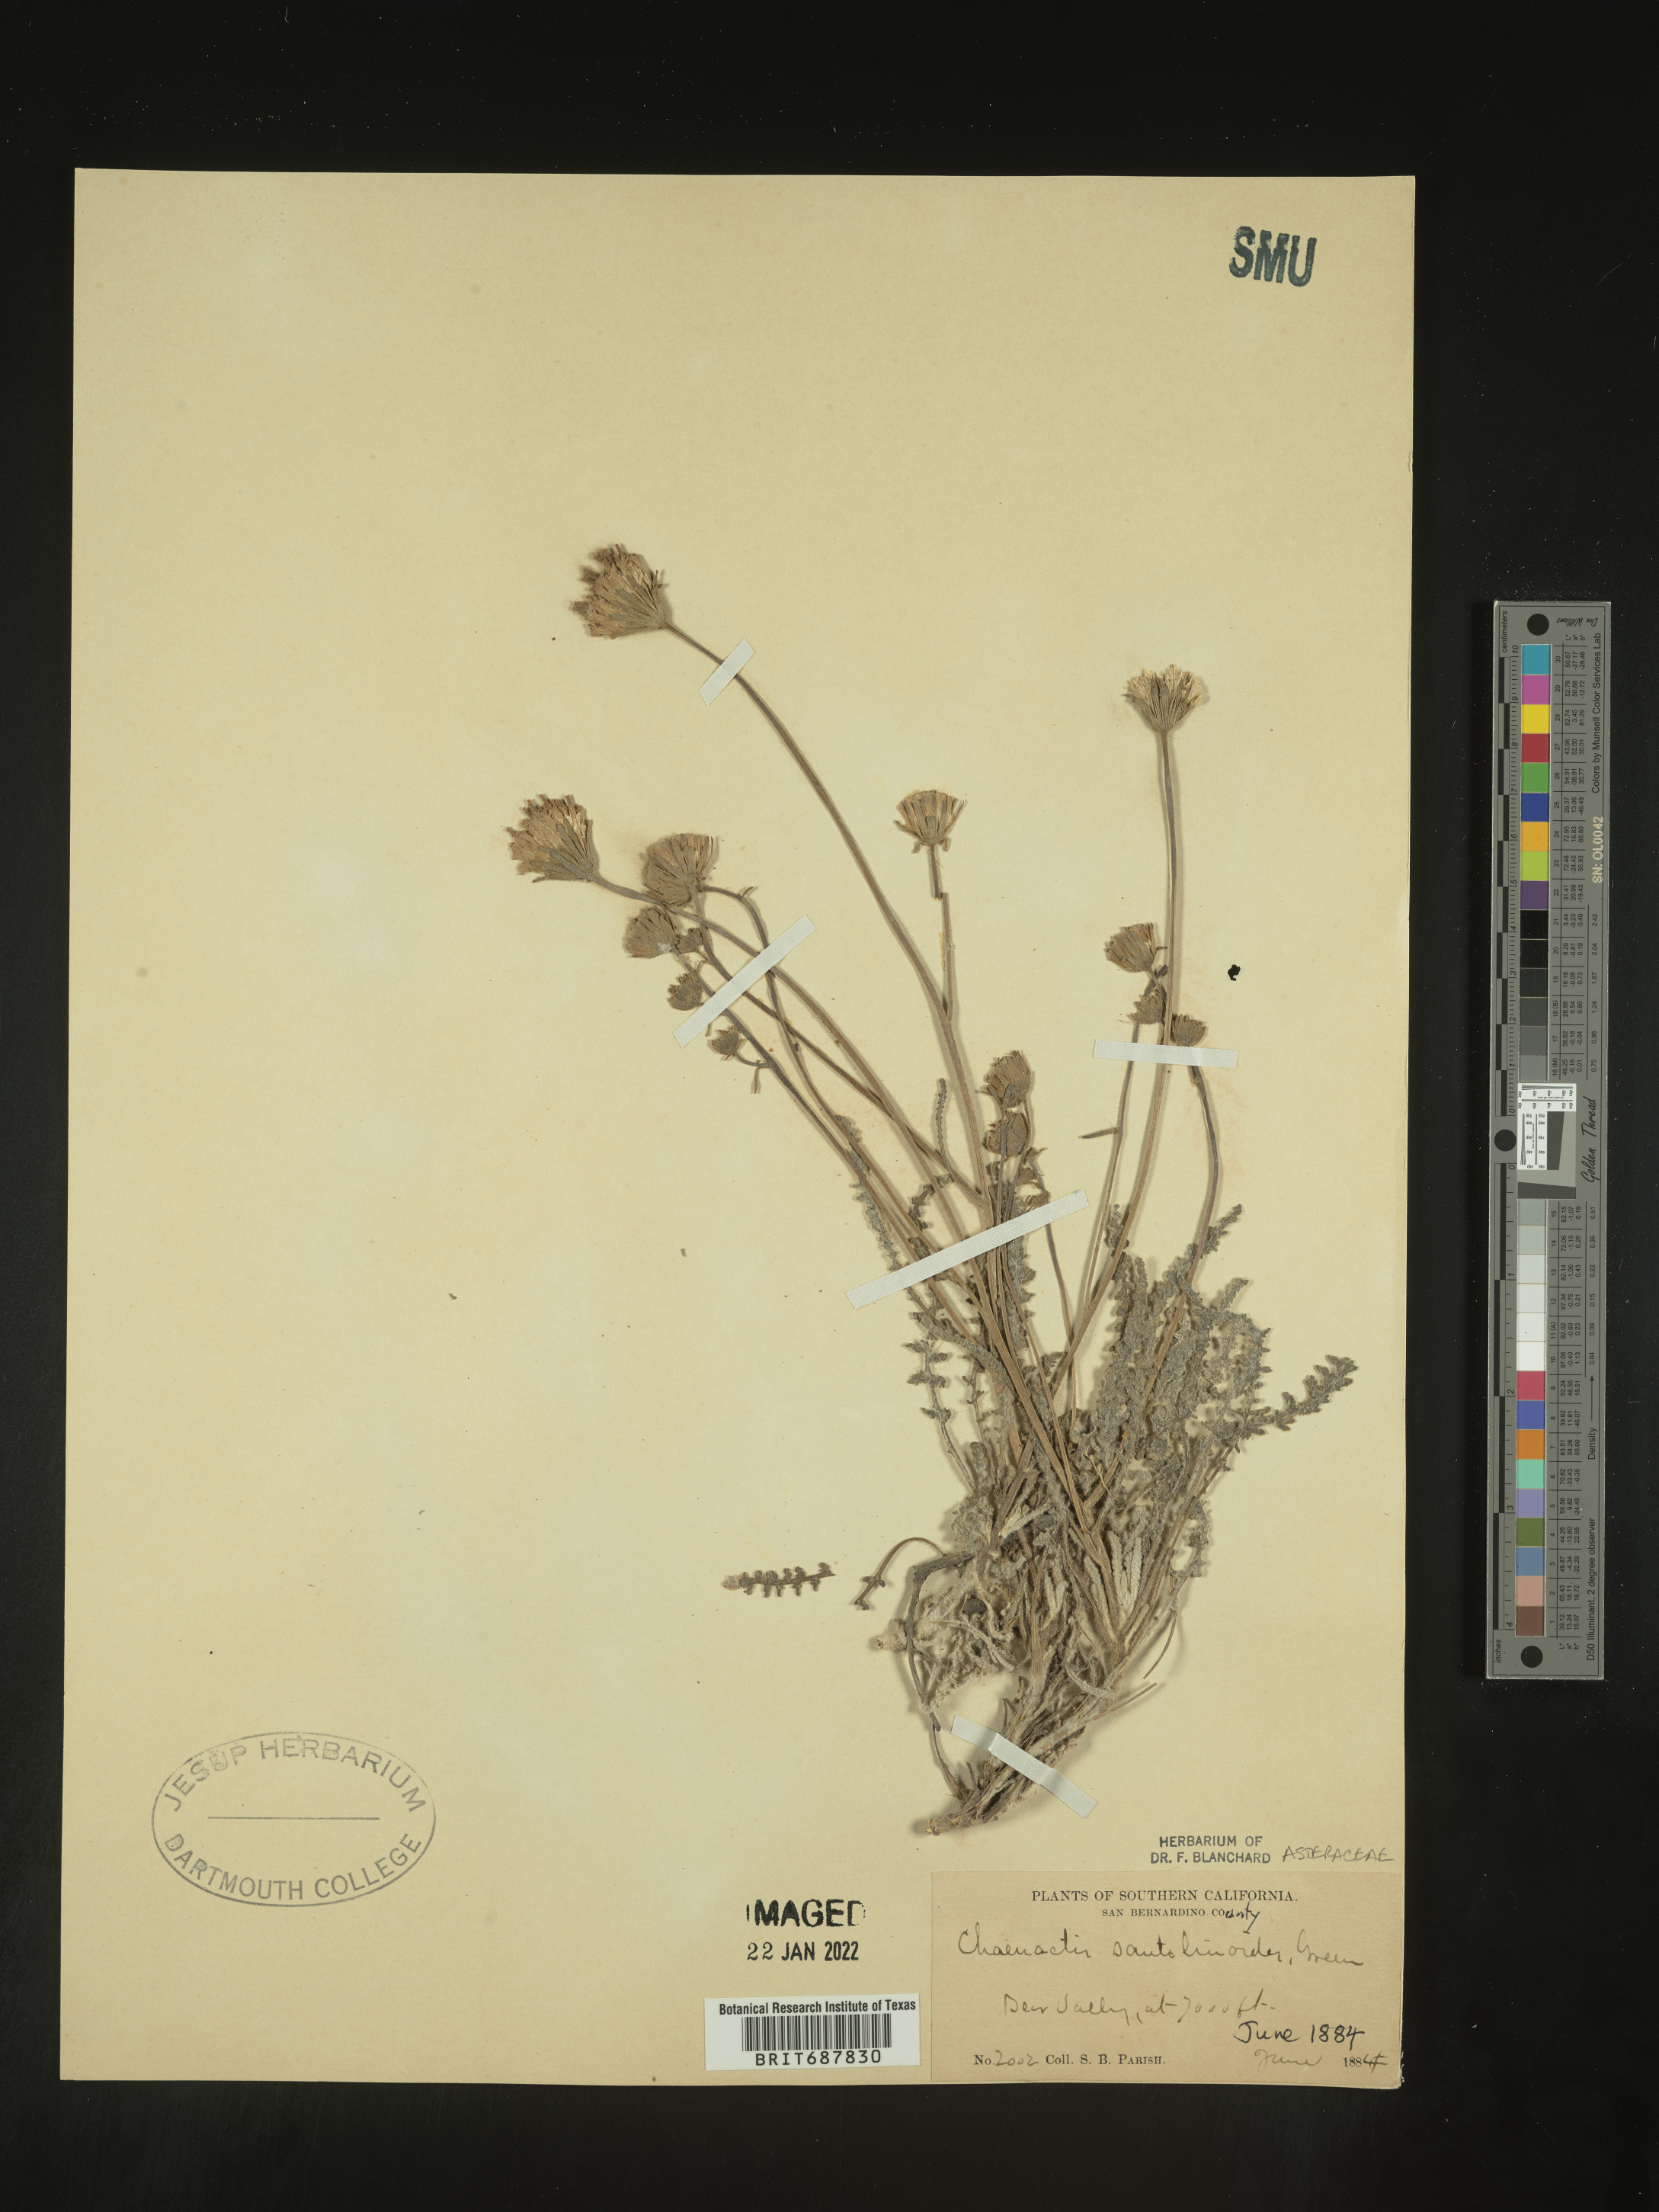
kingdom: Plantae
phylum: Tracheophyta
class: Magnoliopsida
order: Asterales
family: Asteraceae
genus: Chaenactis
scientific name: Chaenactis santolinoides
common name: Santolina pincushion
